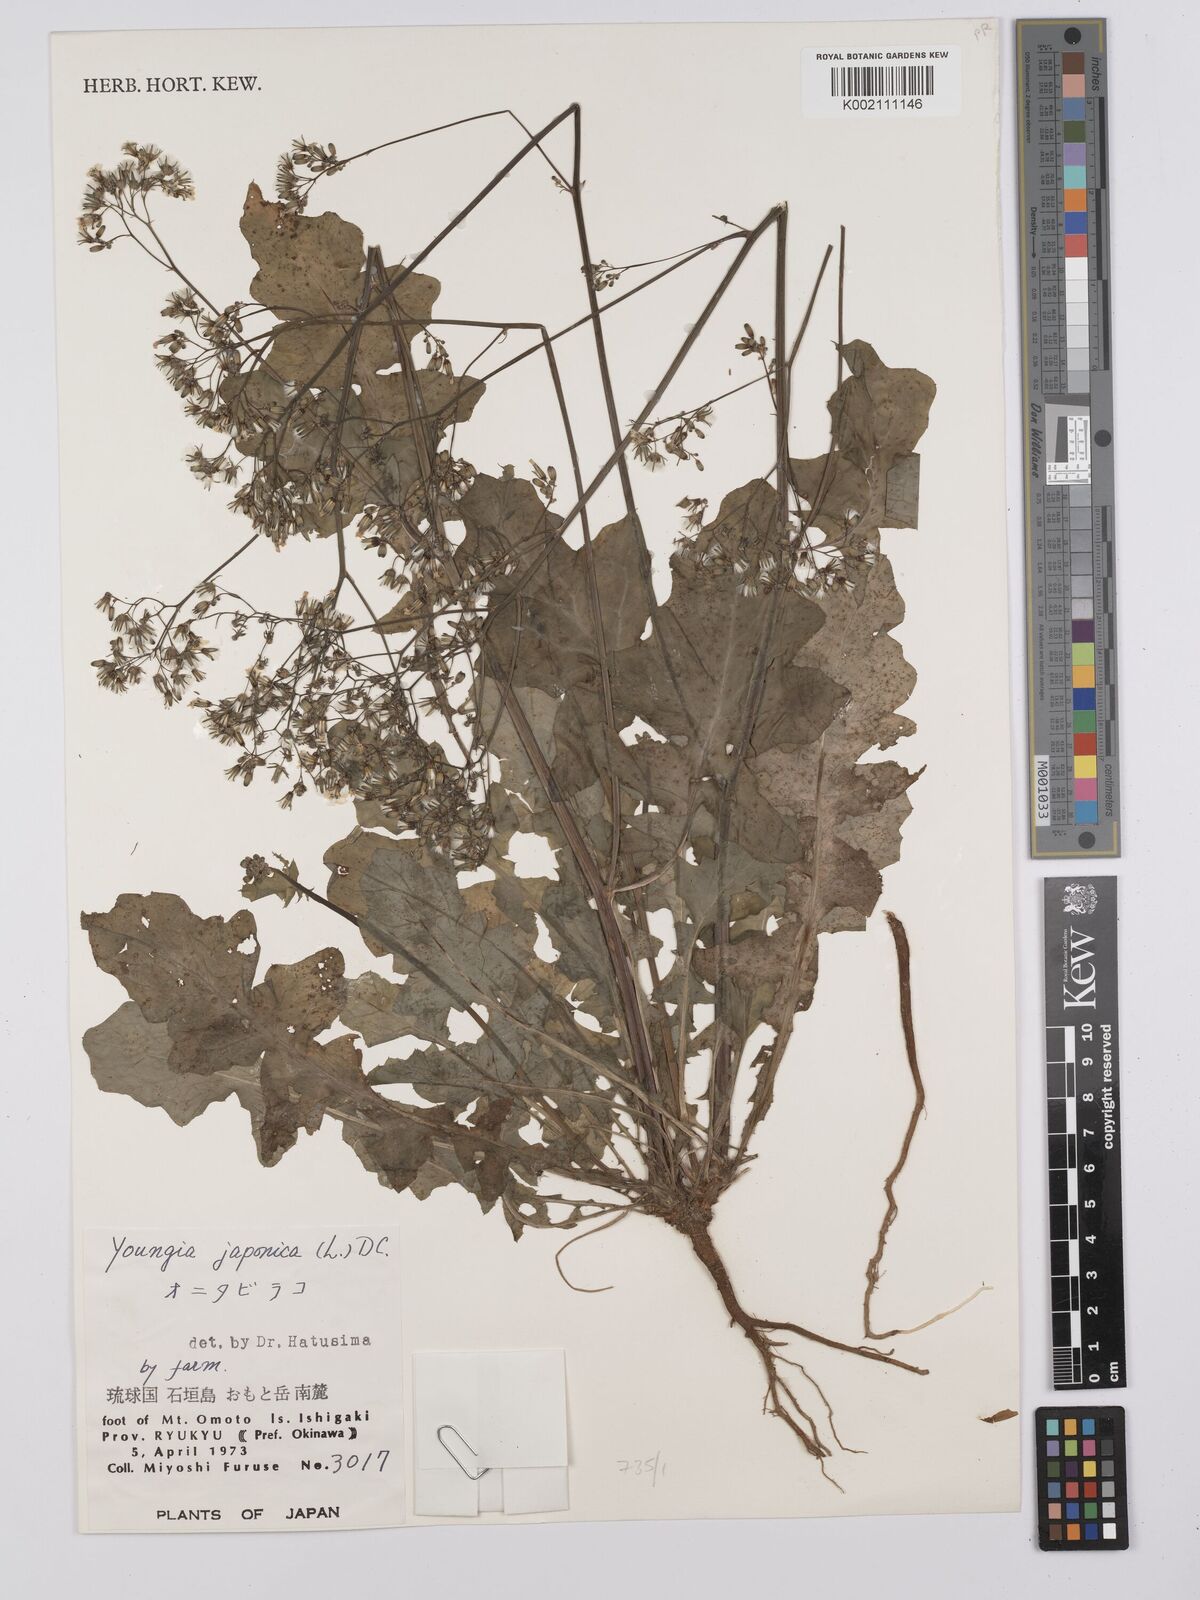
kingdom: Plantae
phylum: Tracheophyta
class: Magnoliopsida
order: Asterales
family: Asteraceae
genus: Youngia
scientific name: Youngia japonica
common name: Oriental false hawksbeard
